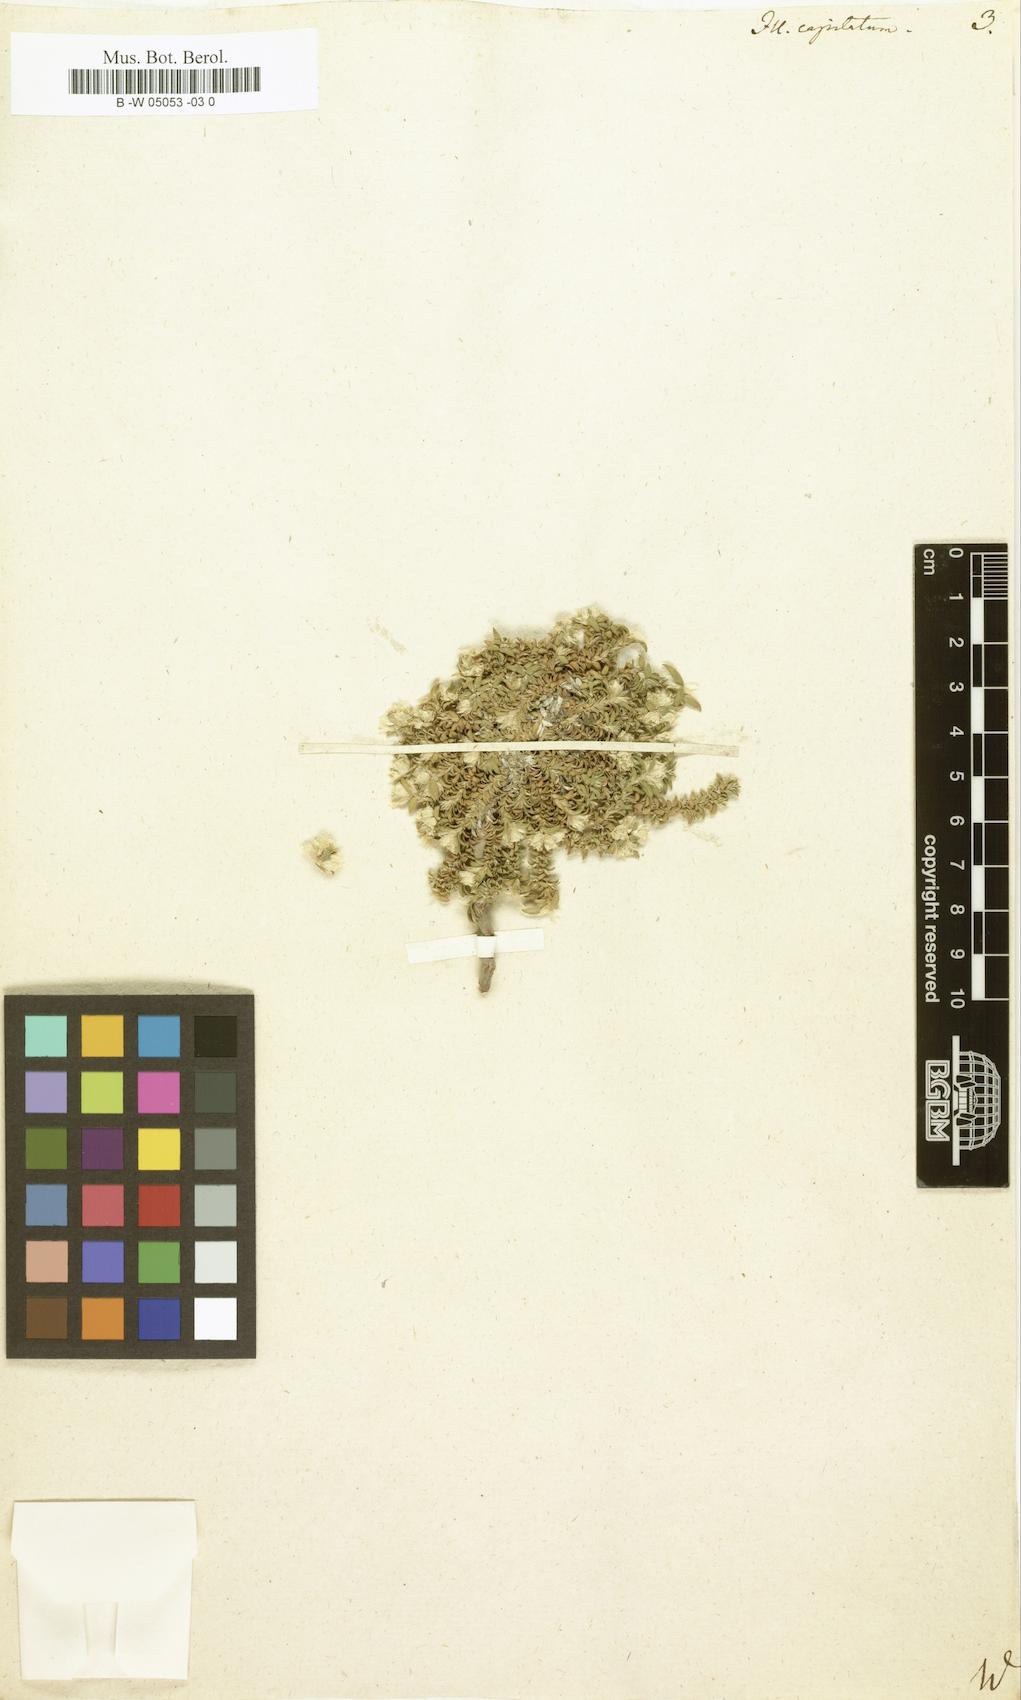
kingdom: Plantae
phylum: Tracheophyta
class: Magnoliopsida
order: Caryophyllales
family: Caryophyllaceae
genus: Paronychia
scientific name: Paronychia capitata
